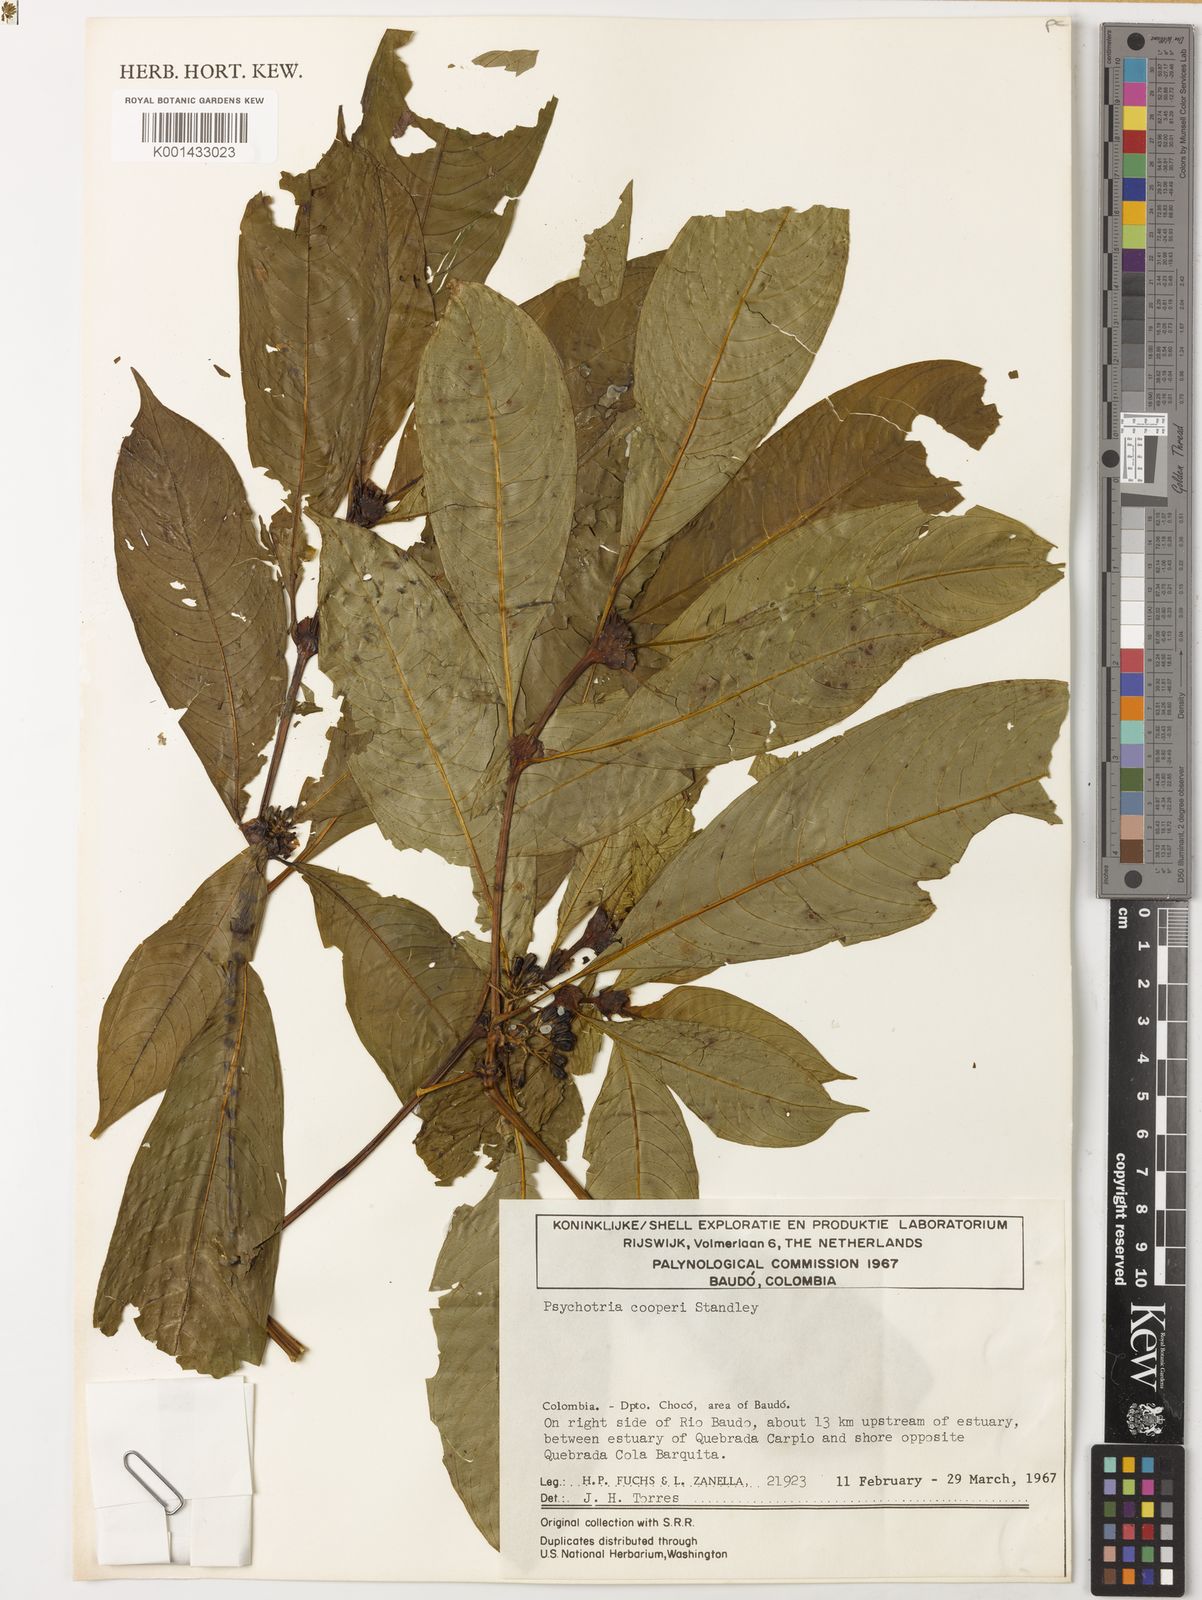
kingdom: Plantae
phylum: Tracheophyta
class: Magnoliopsida
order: Gentianales
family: Rubiaceae
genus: Palicourea
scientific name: Palicourea pseudaxillaris
